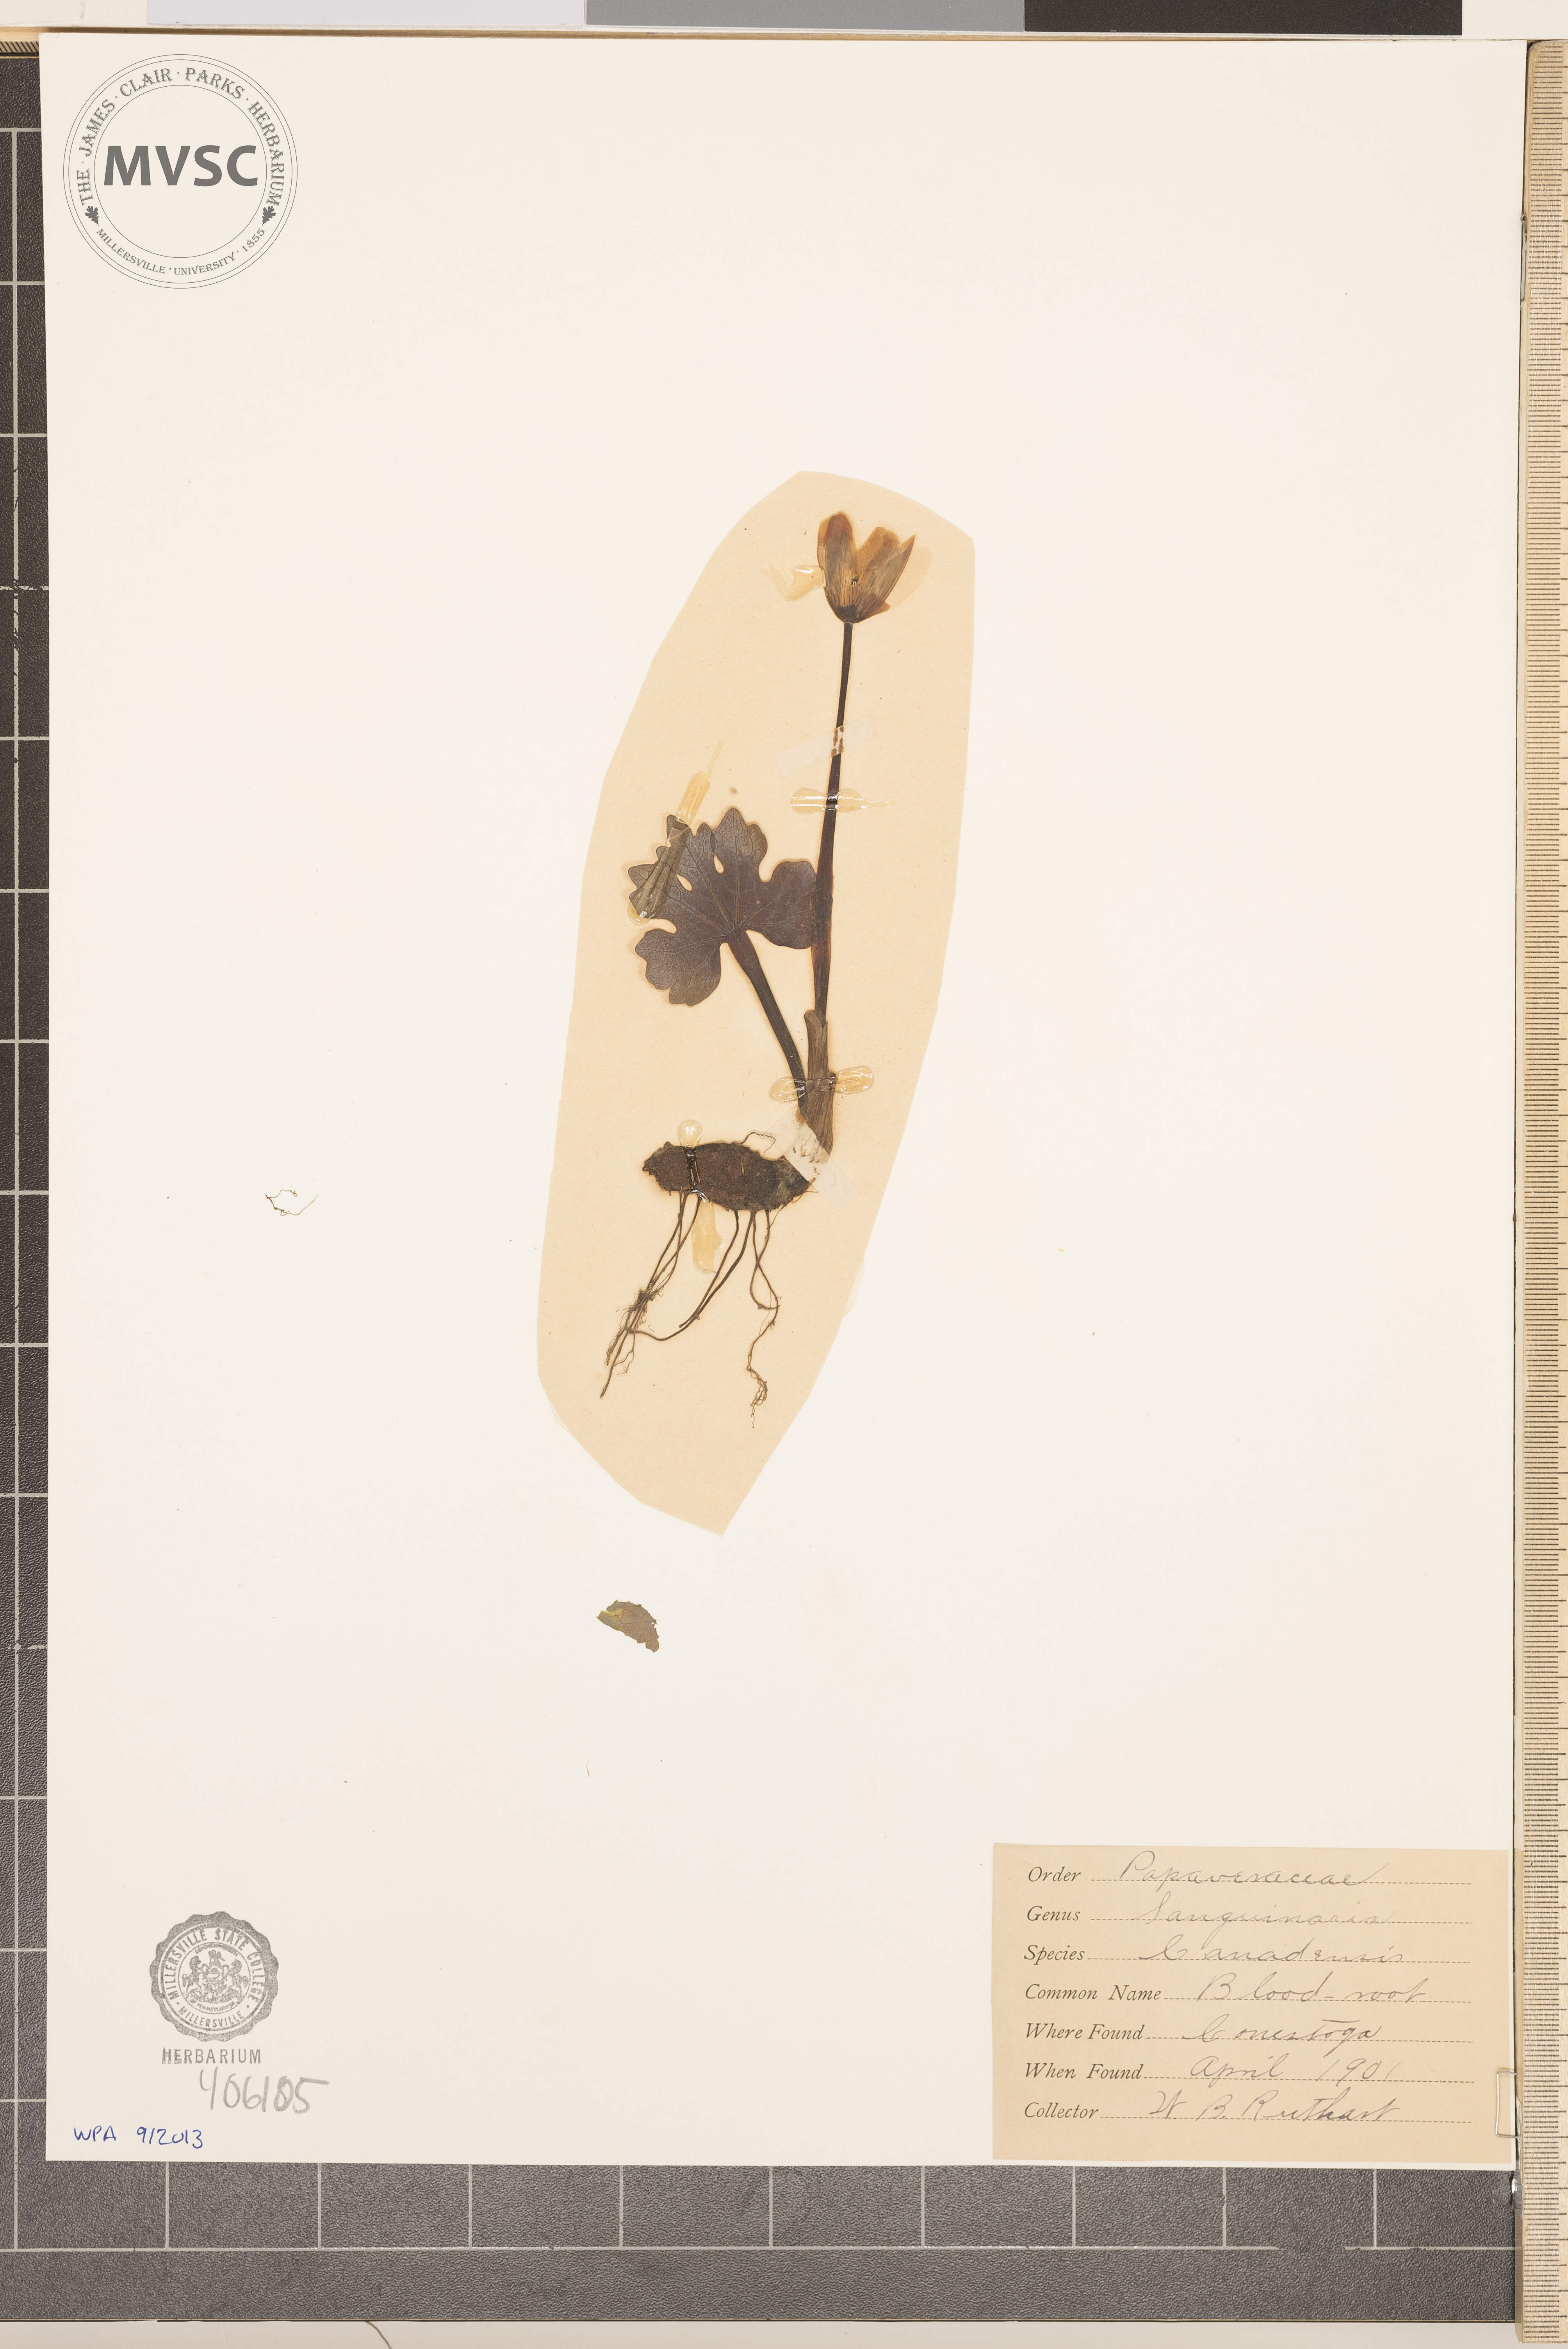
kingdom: Plantae
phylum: Tracheophyta
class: Magnoliopsida
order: Ranunculales
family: Papaveraceae
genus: Sanguinaria
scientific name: Sanguinaria canadensis
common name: Bloodroot
